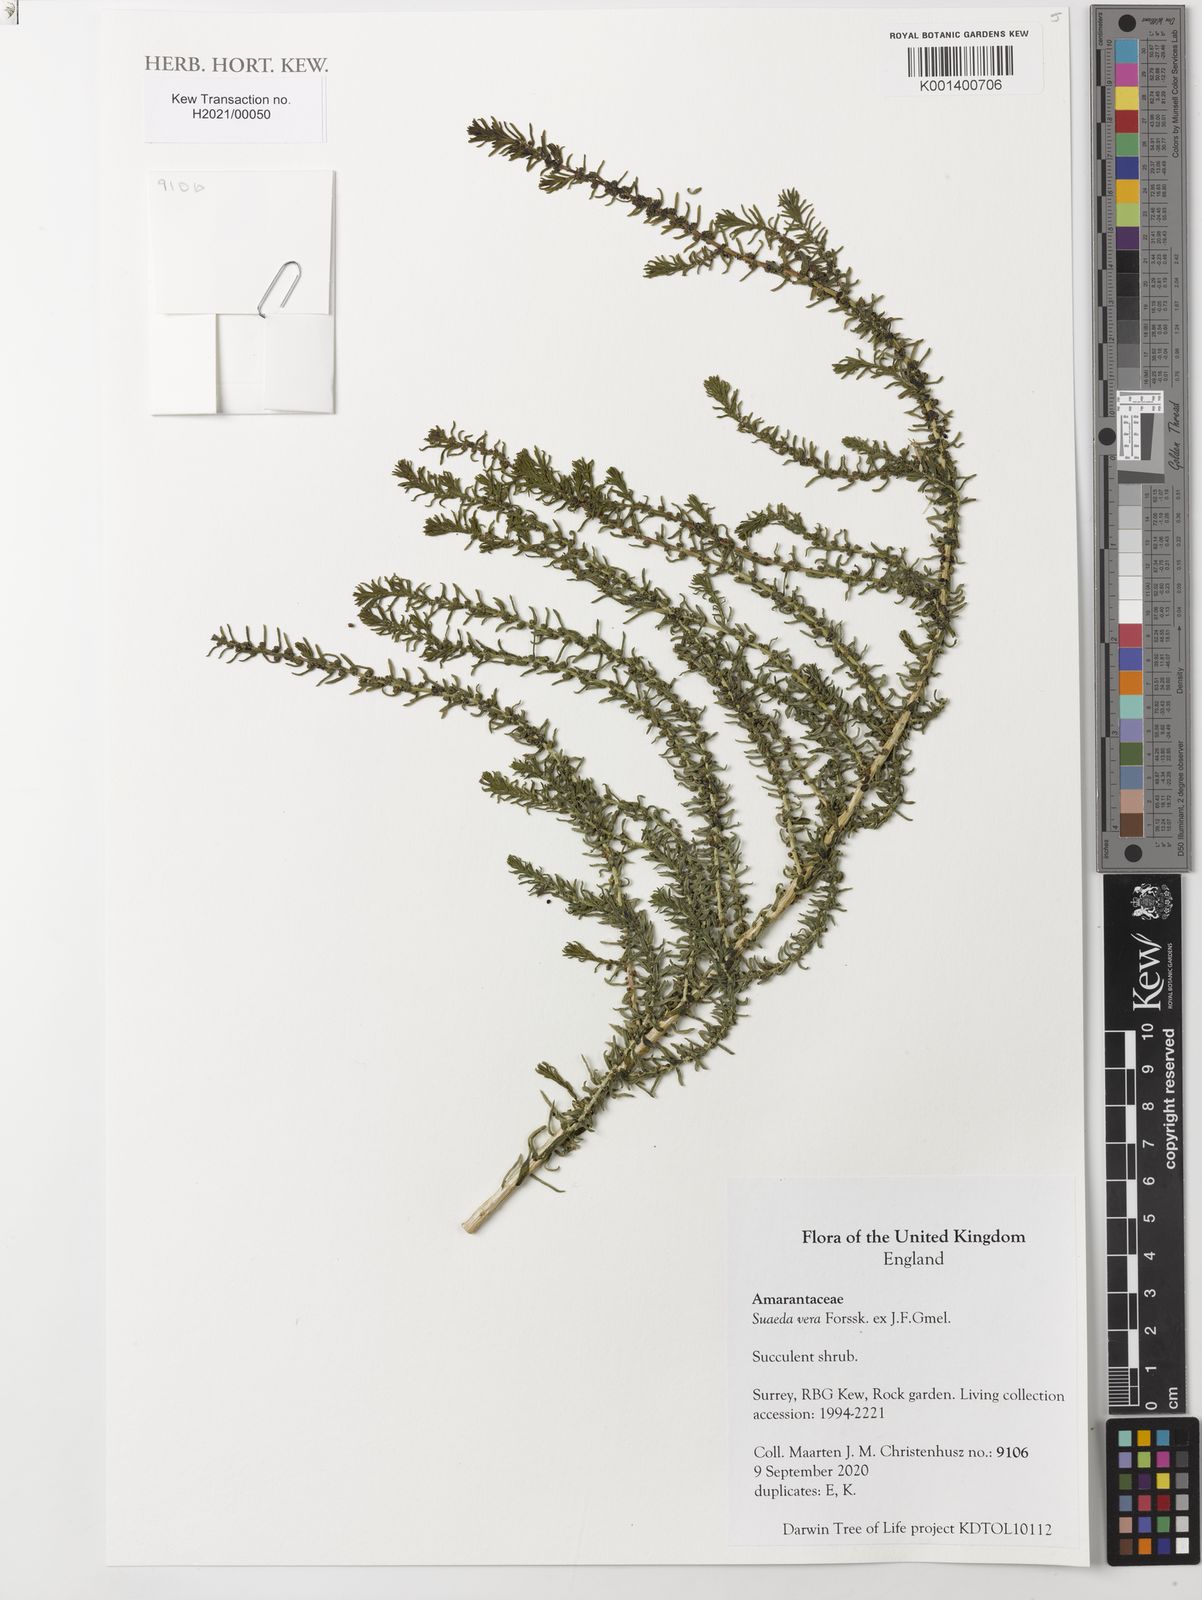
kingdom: Plantae
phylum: Tracheophyta
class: Magnoliopsida
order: Caryophyllales
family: Amaranthaceae
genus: Suaeda
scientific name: Suaeda vera
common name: Shrubby sea-blite
